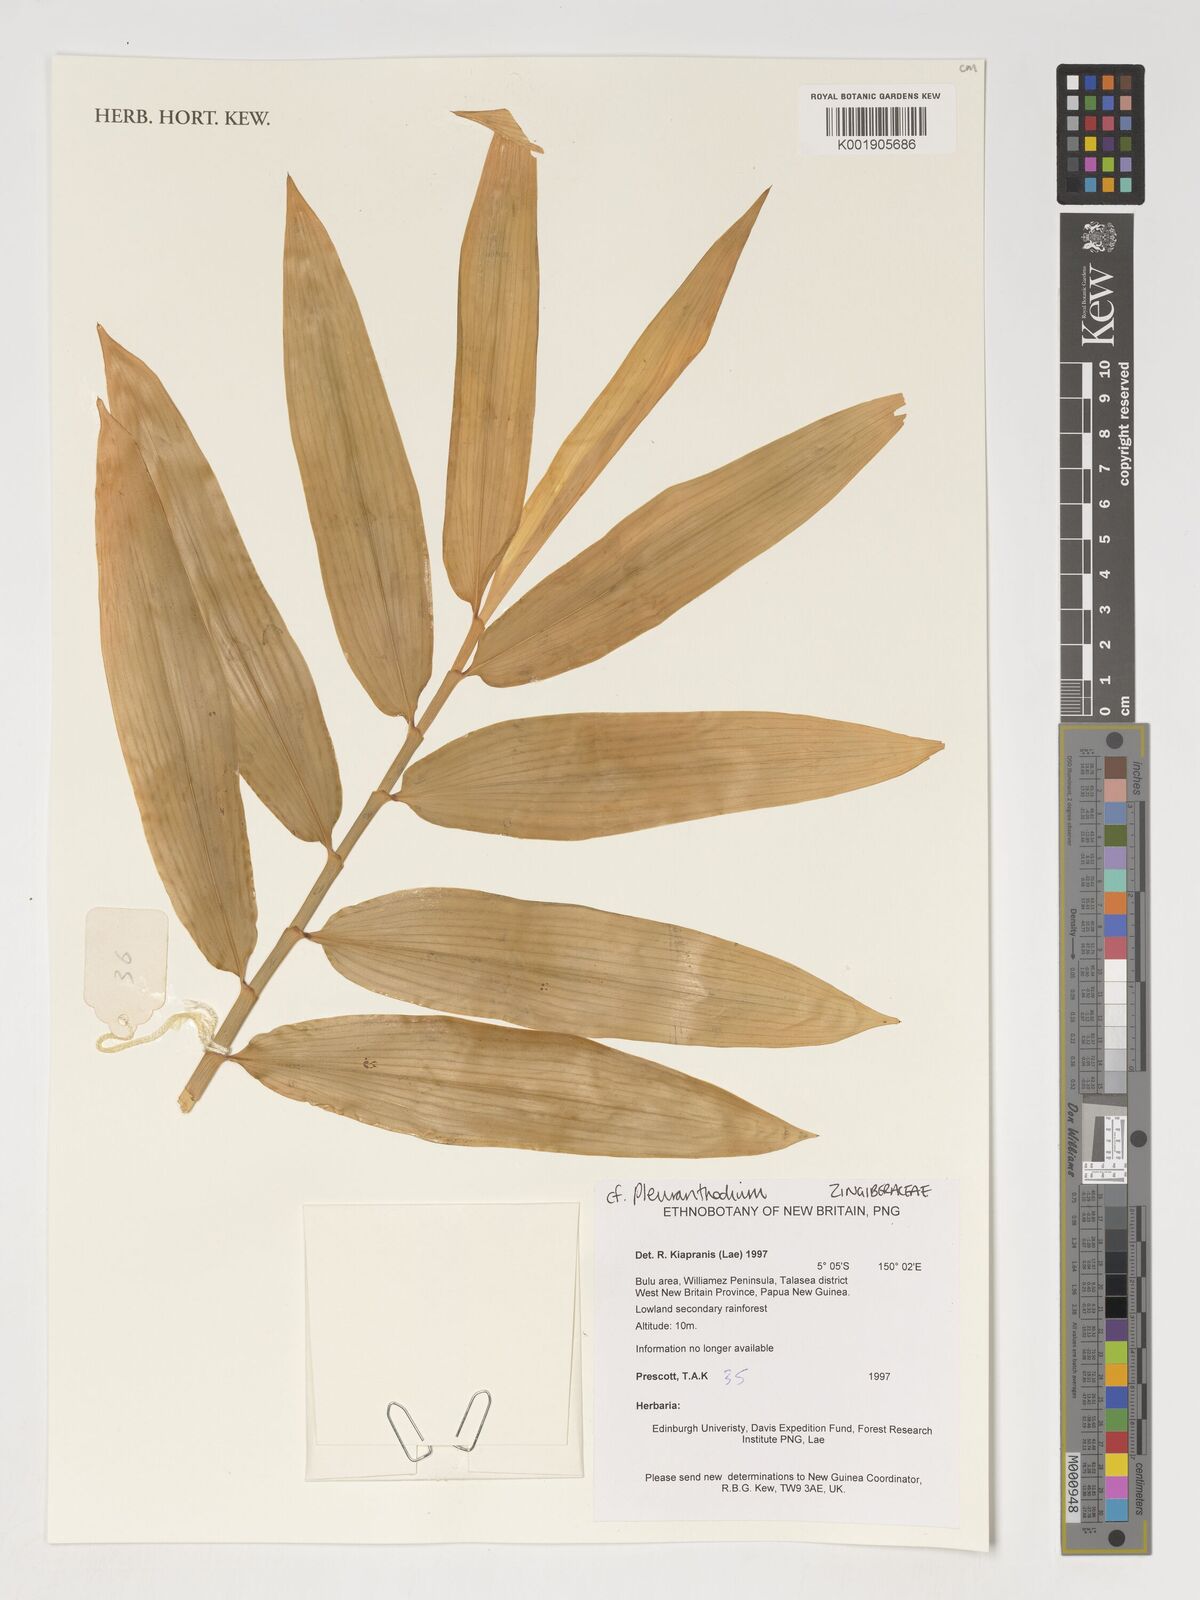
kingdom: Plantae
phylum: Tracheophyta
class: Liliopsida
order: Zingiberales
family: Zingiberaceae
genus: Pleuranthodium
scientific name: Pleuranthodium
